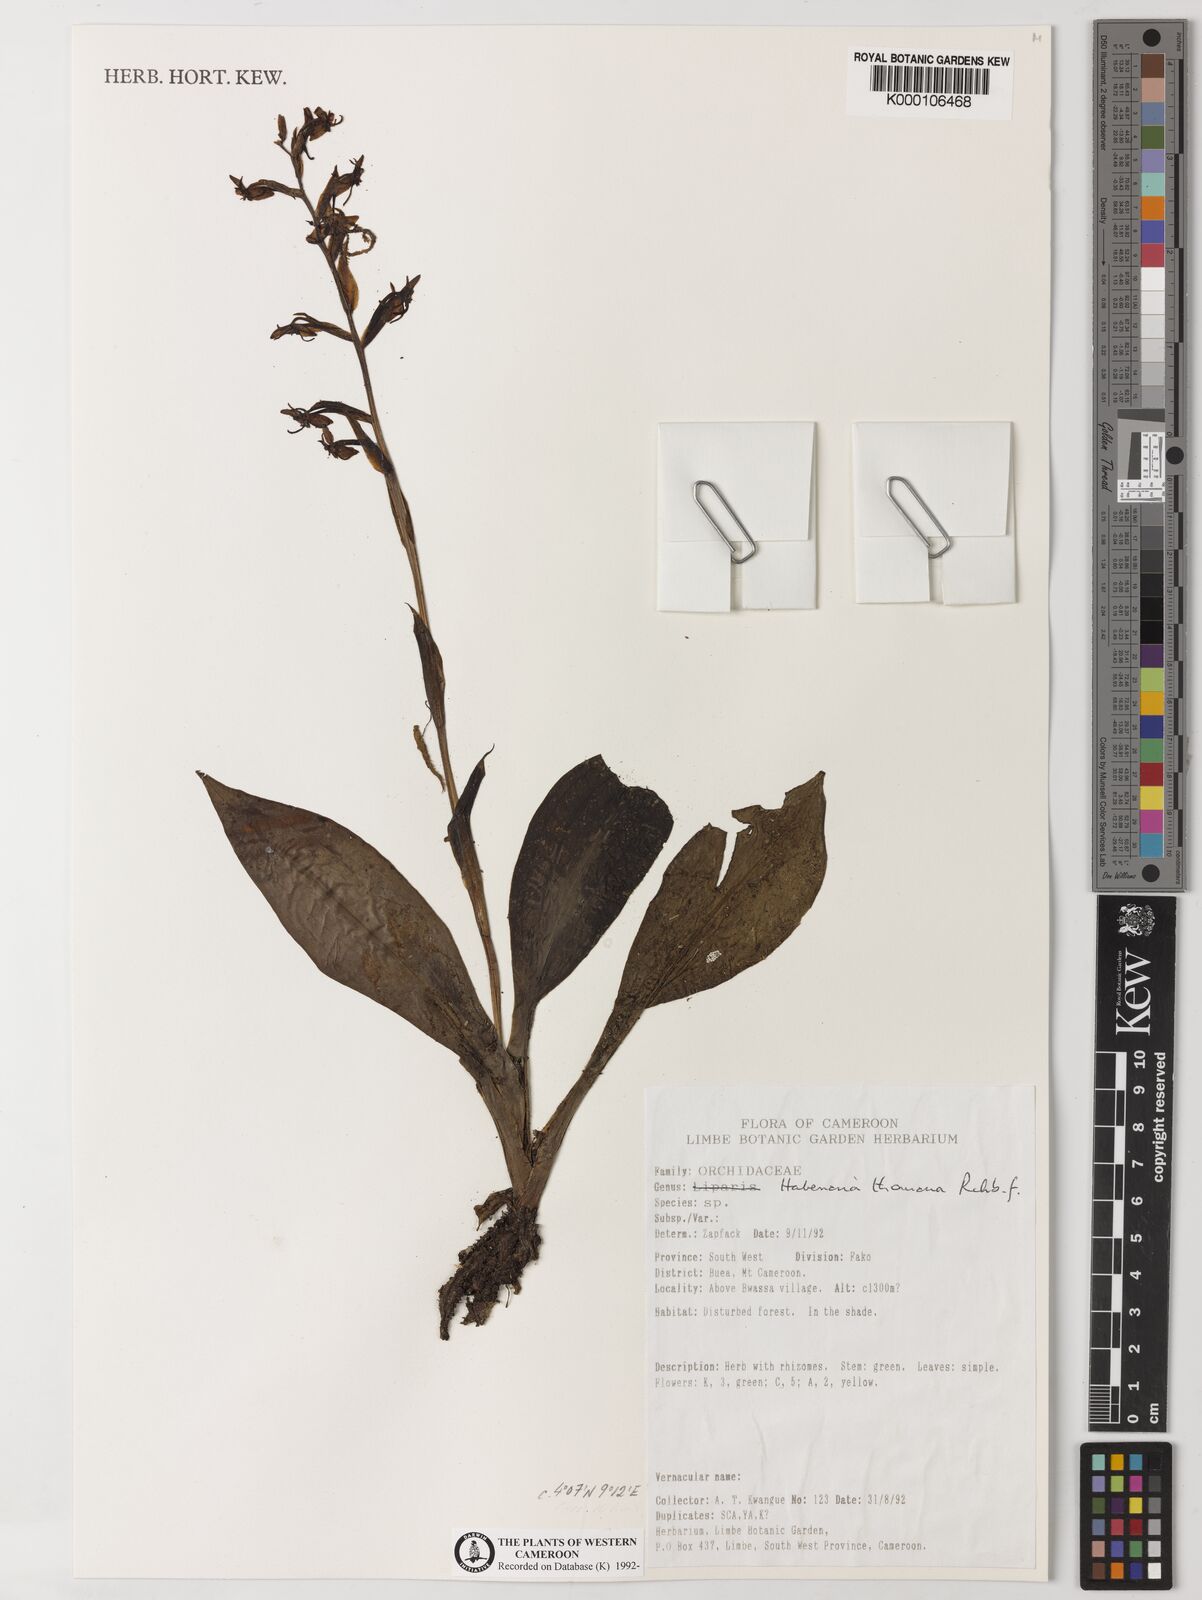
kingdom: Plantae
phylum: Tracheophyta
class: Liliopsida
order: Asparagales
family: Orchidaceae
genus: Habenaria
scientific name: Habenaria thomana
